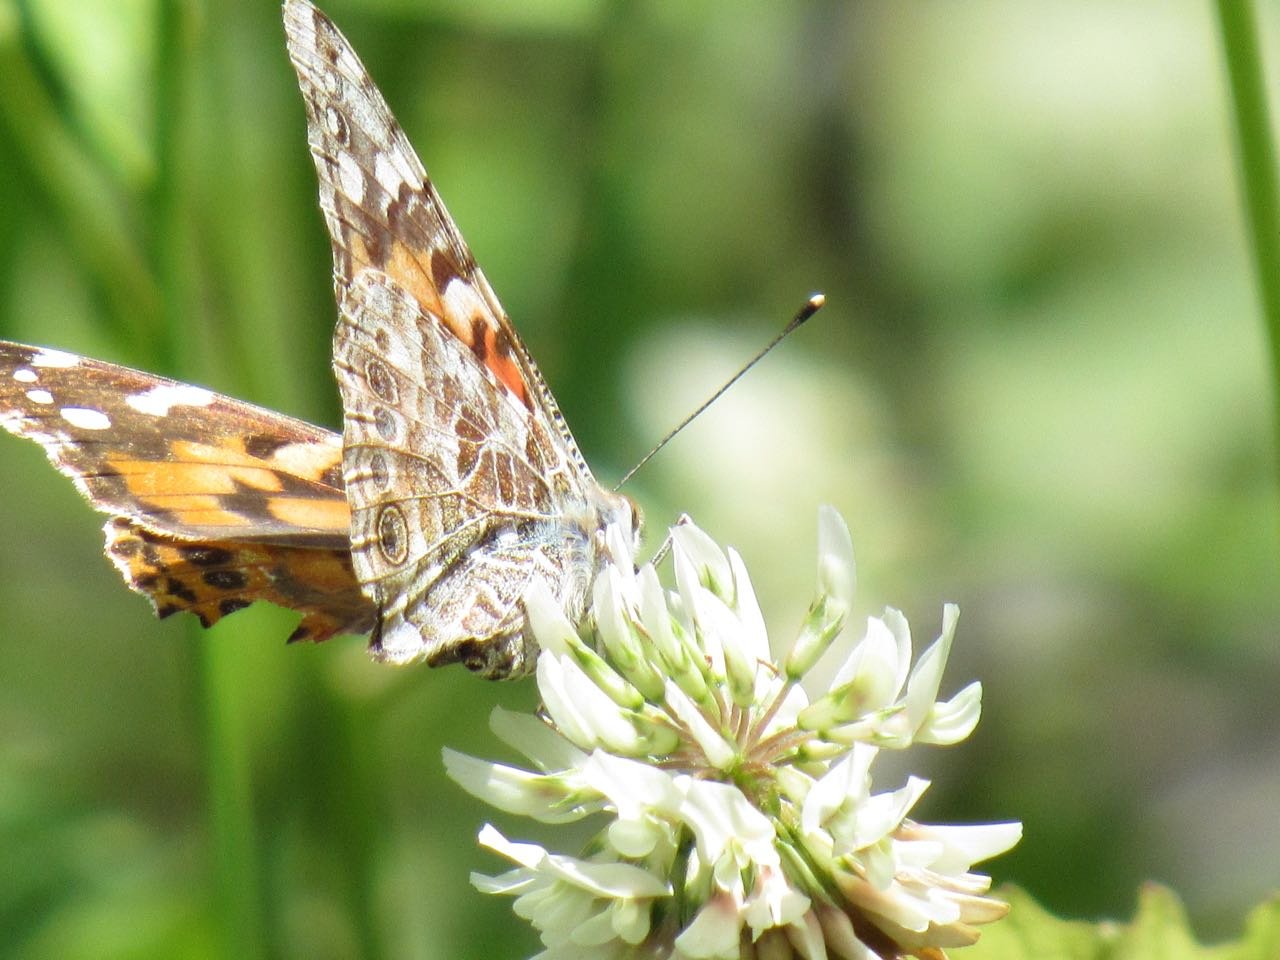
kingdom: Animalia
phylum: Arthropoda
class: Insecta
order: Lepidoptera
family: Nymphalidae
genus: Vanessa
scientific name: Vanessa cardui
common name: Painted Lady
